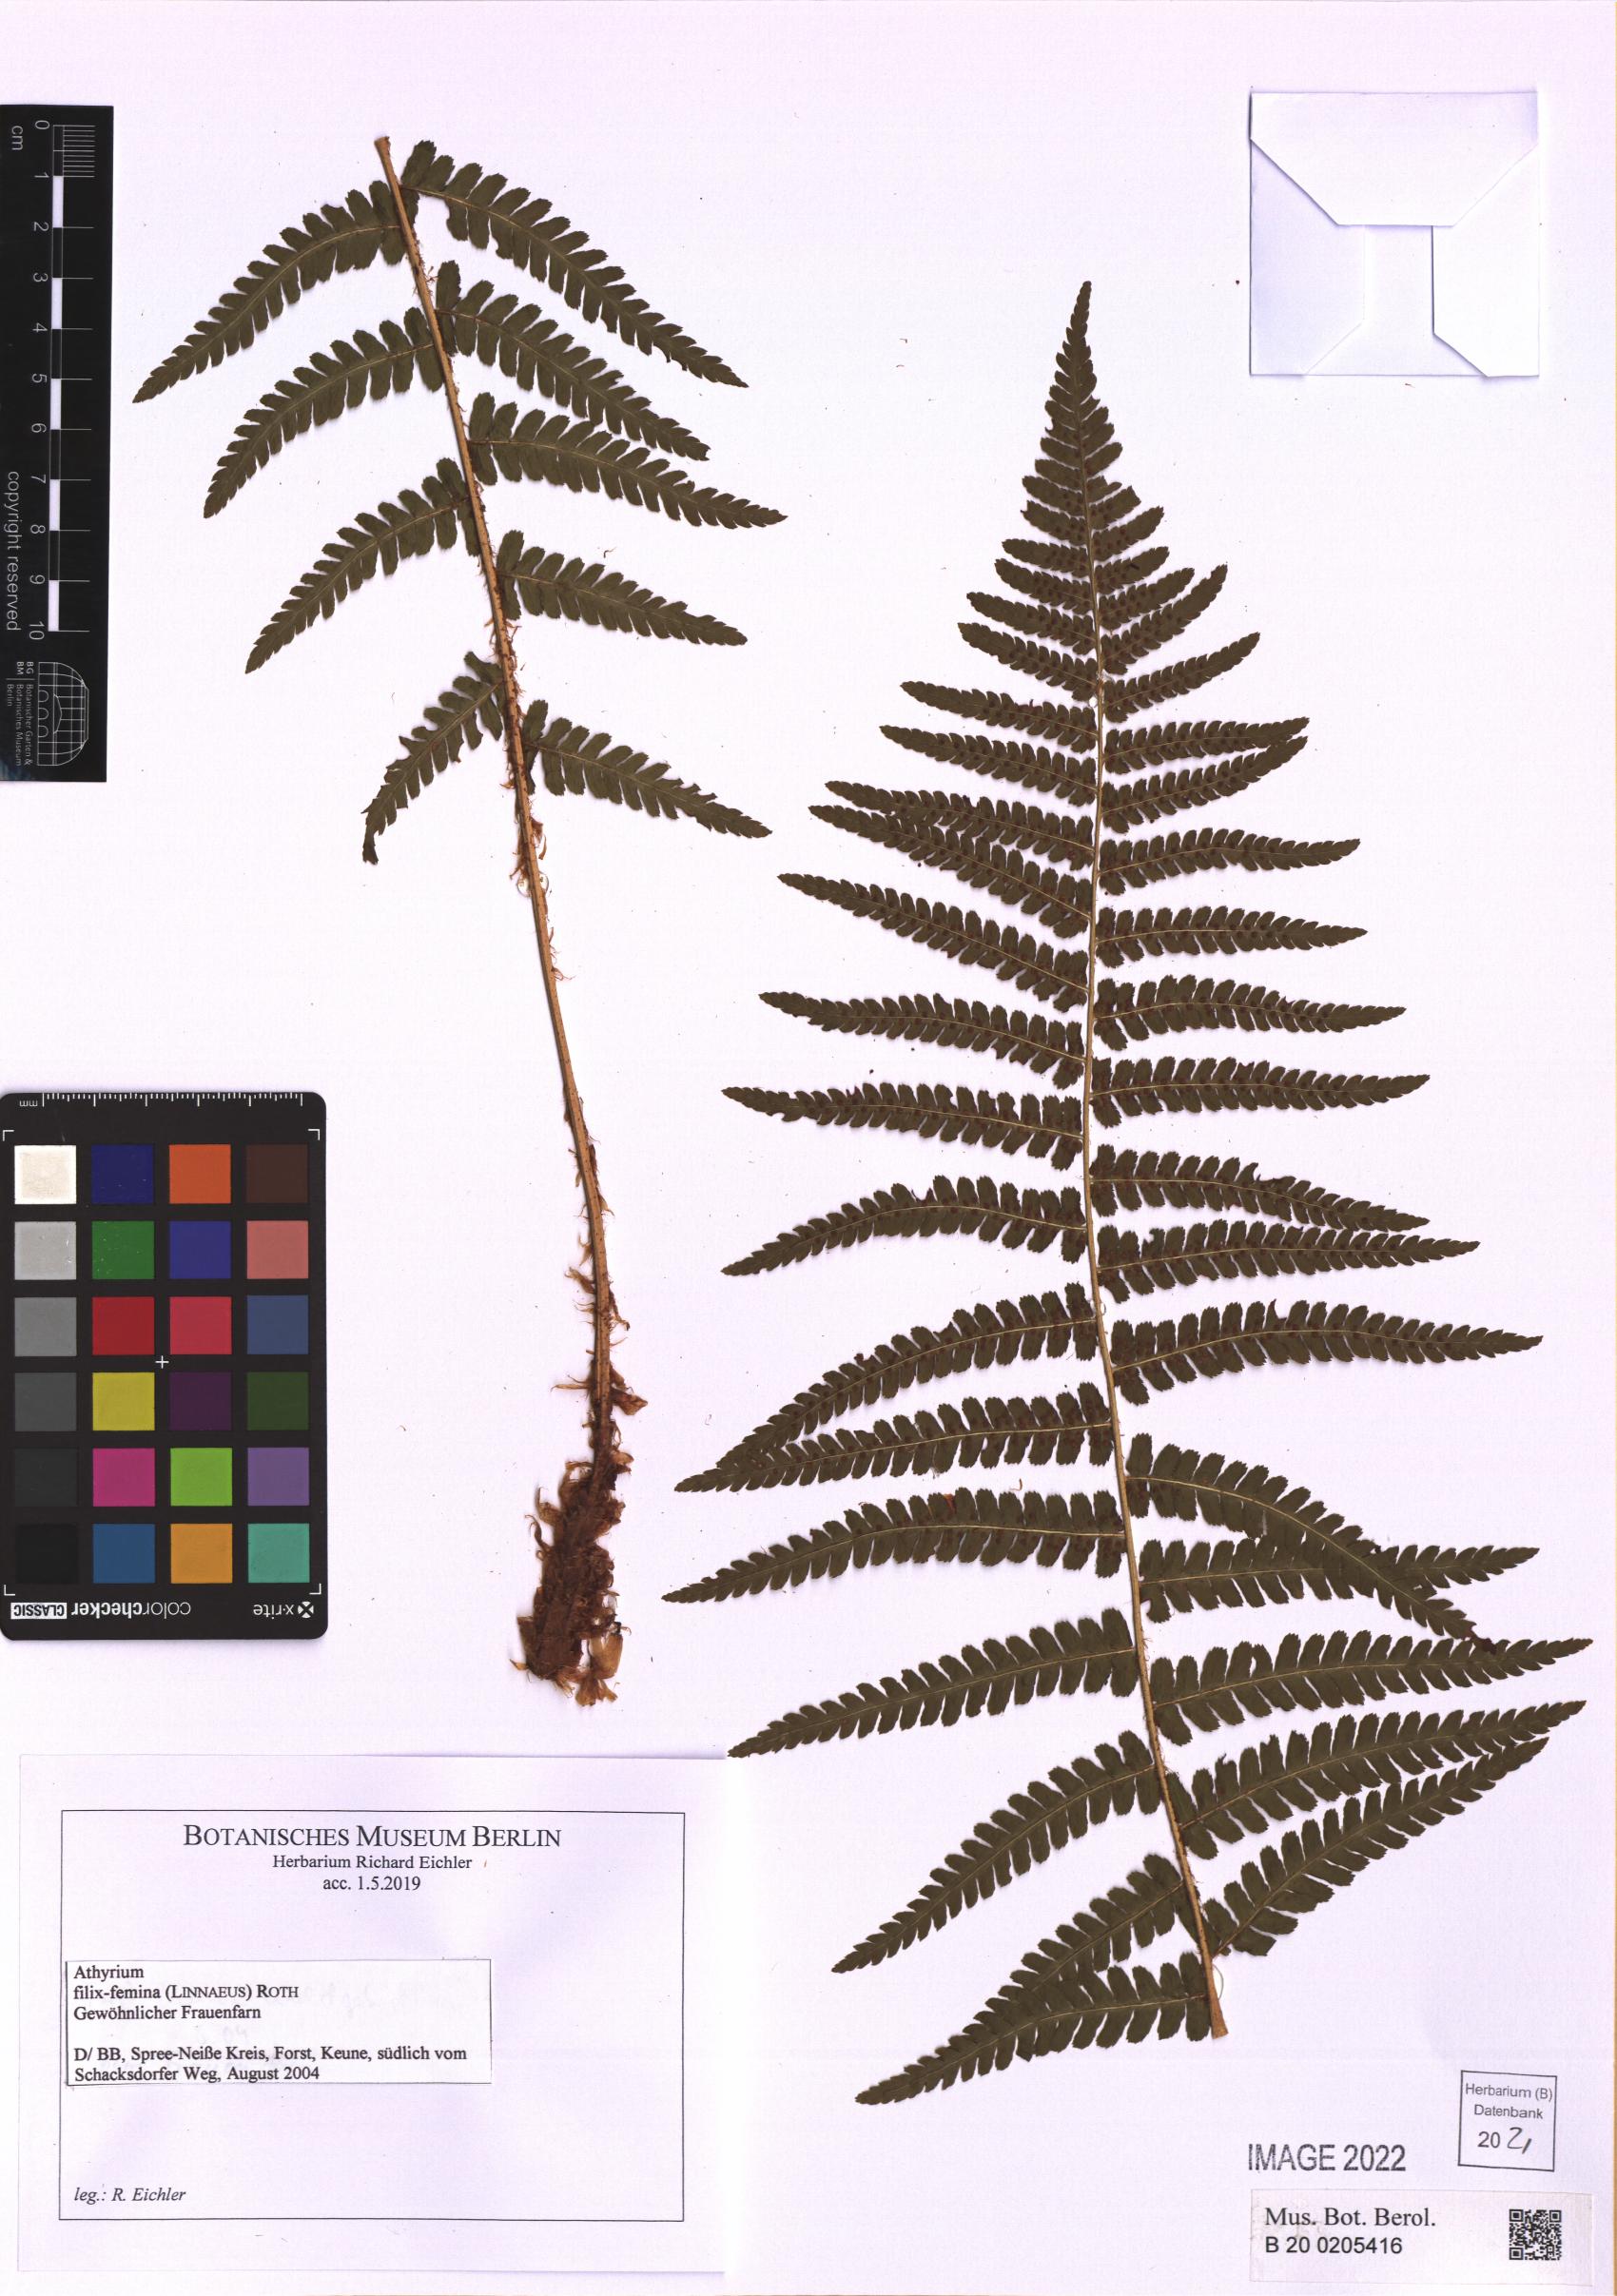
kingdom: Plantae
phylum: Tracheophyta
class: Polypodiopsida
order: Polypodiales
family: Athyriaceae
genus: Athyrium
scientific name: Athyrium filix-femina
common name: Lady fern
